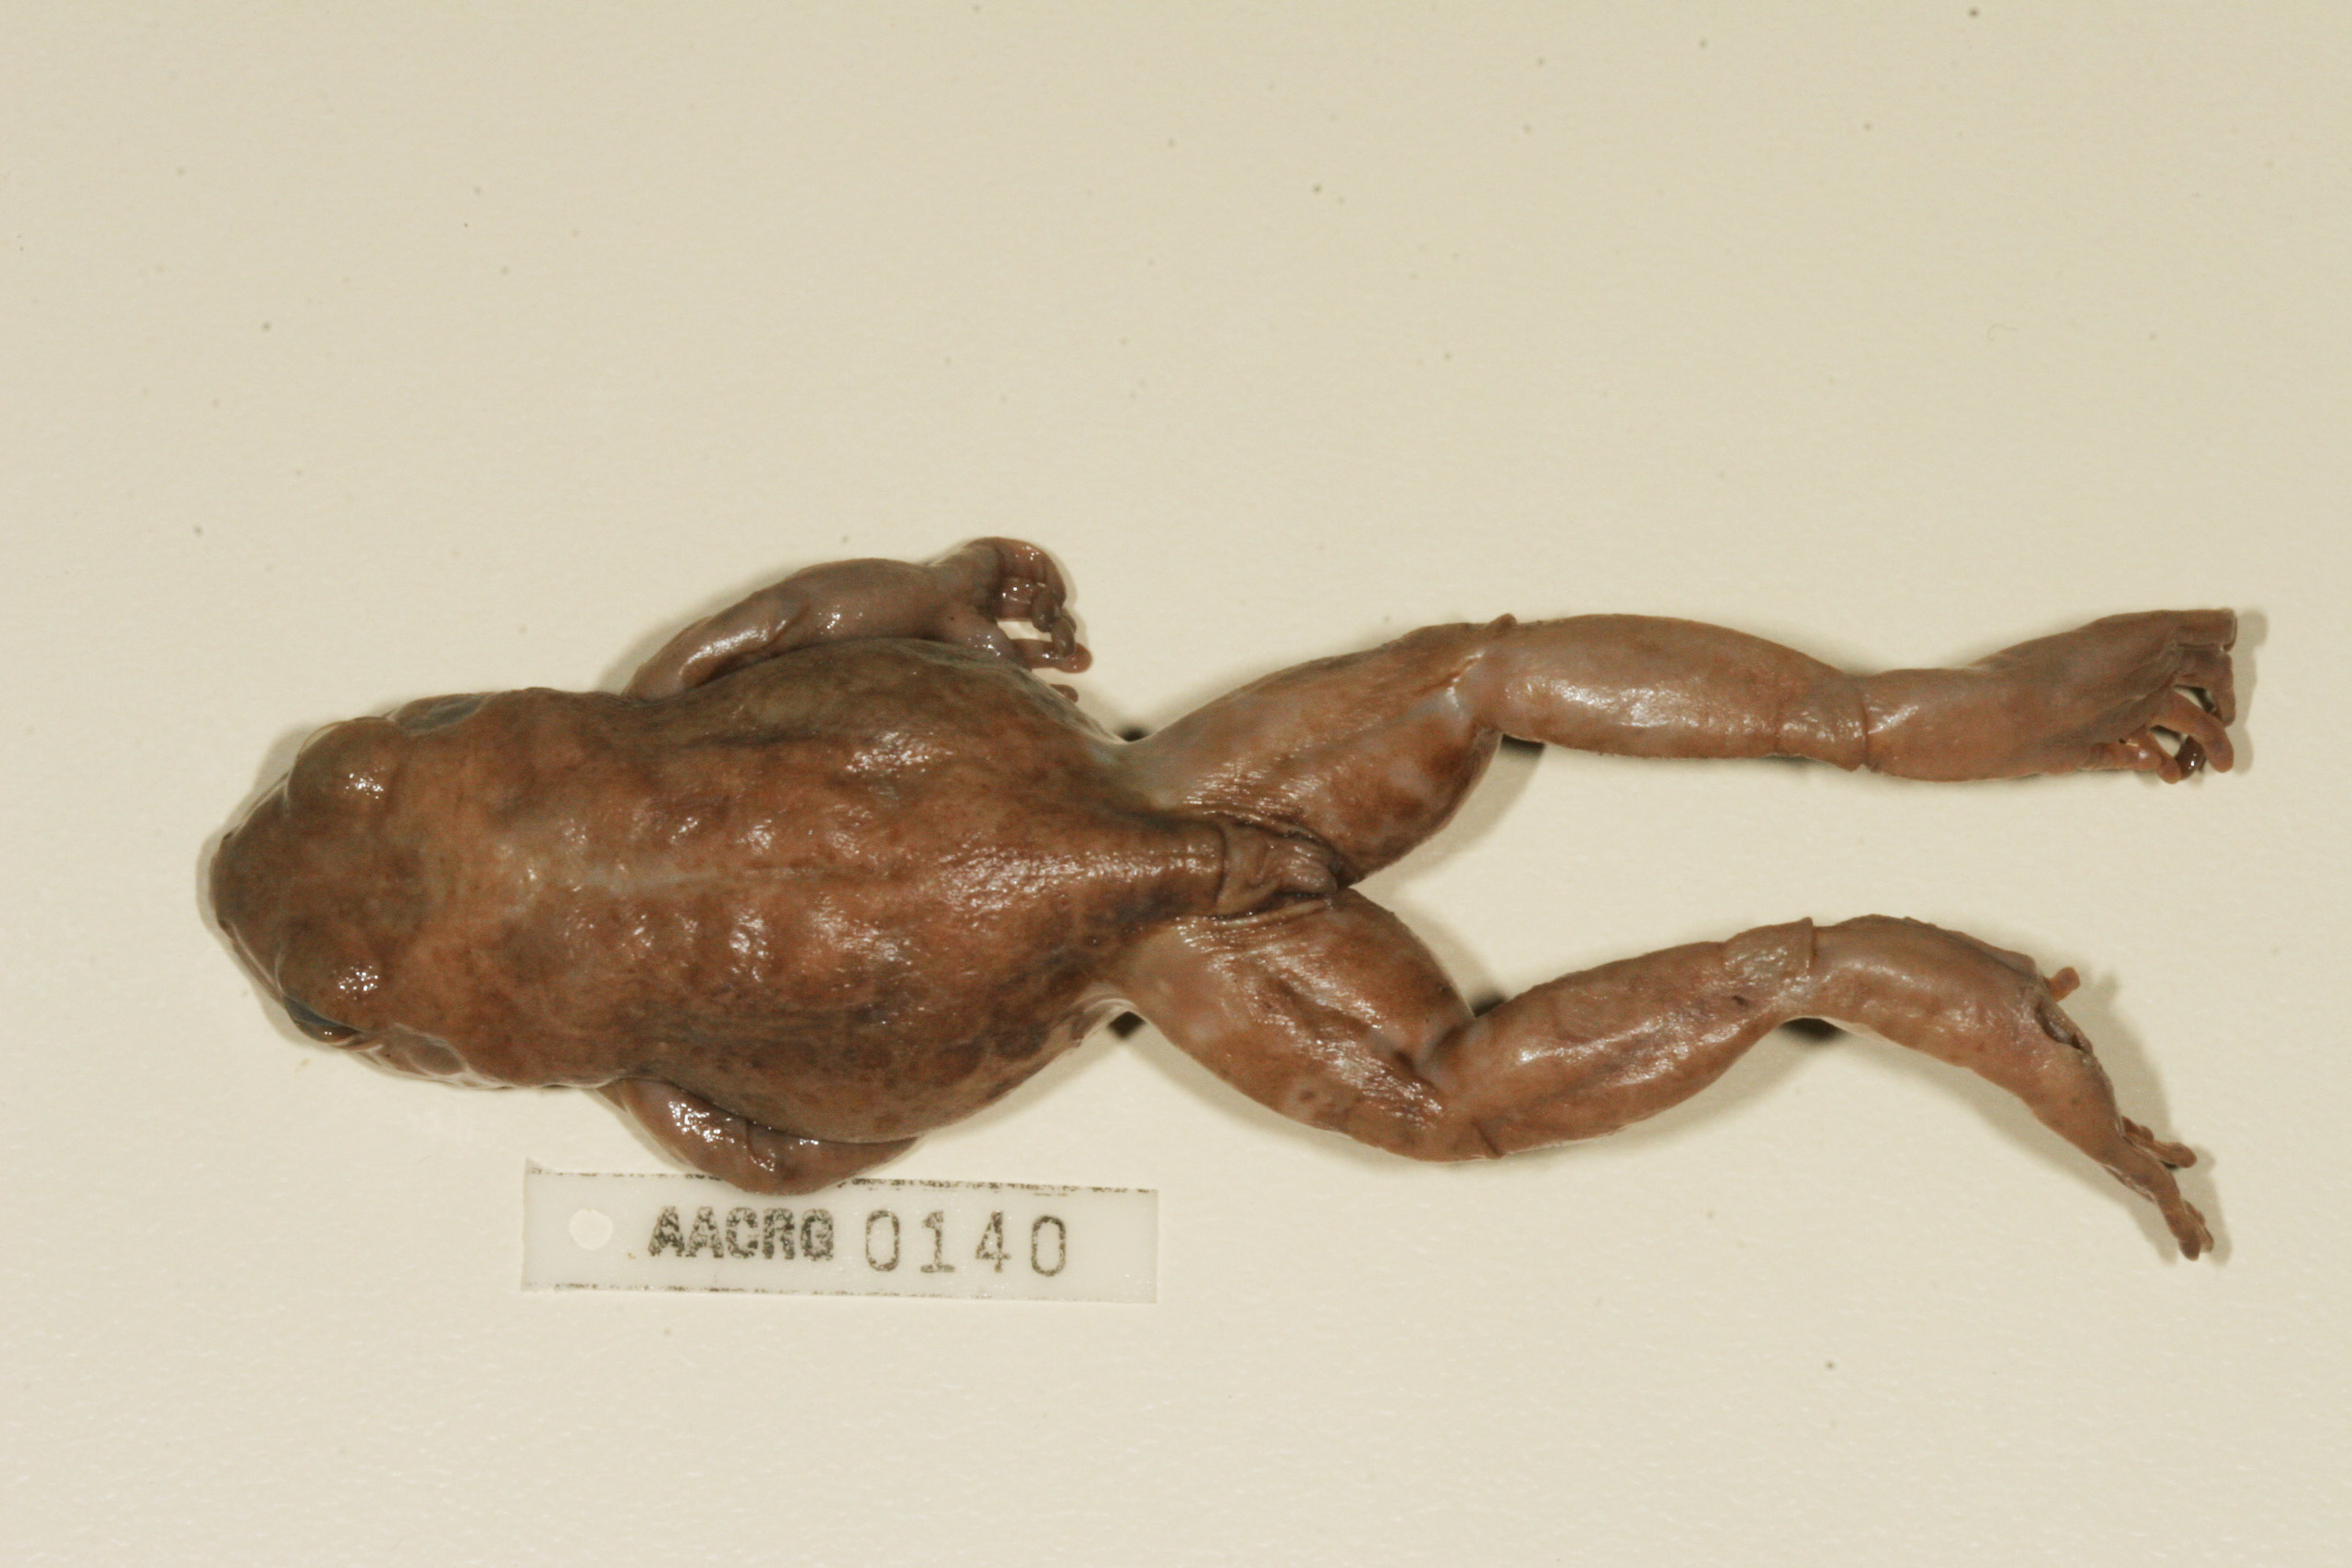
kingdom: Animalia
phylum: Chordata
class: Amphibia
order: Anura
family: Hyperoliidae
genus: Phlyctimantis
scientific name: Phlyctimantis maculatus
